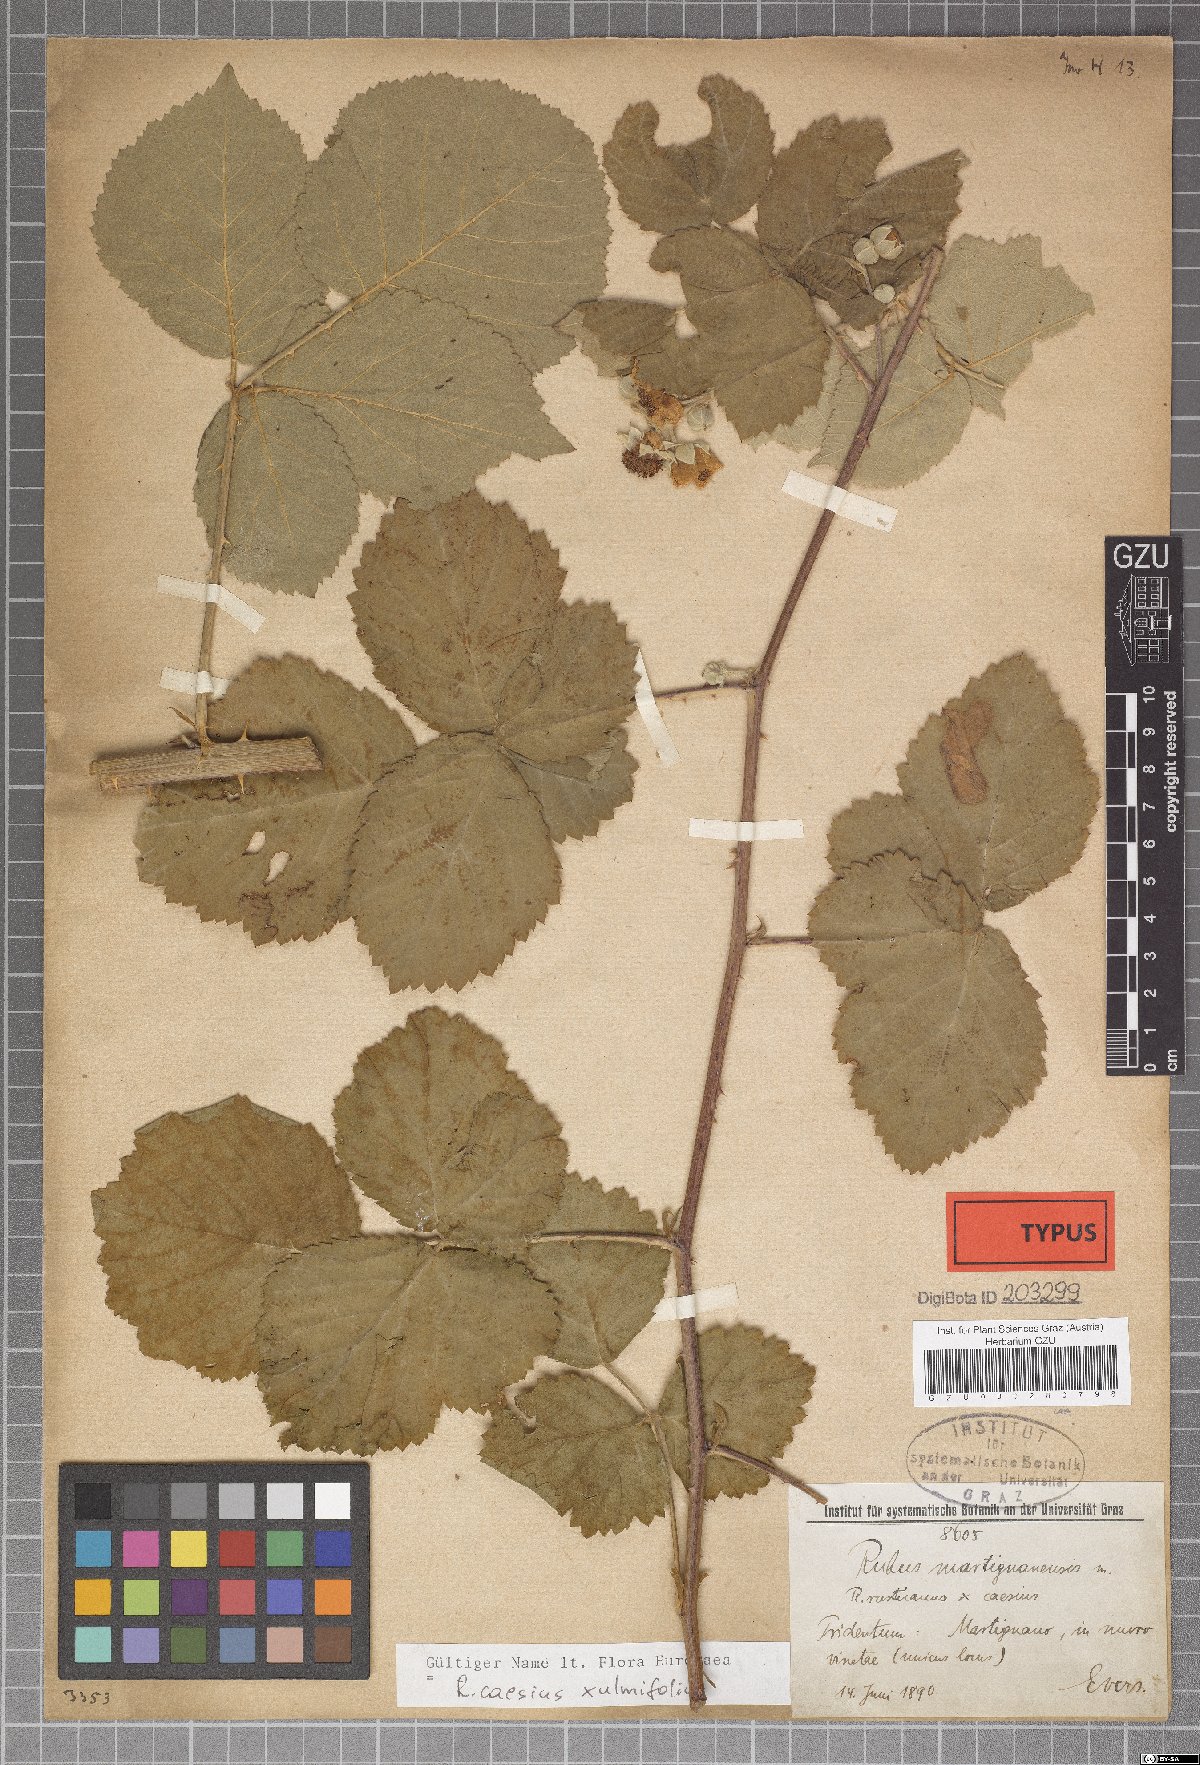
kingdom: Plantae
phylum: Tracheophyta
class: Magnoliopsida
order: Rosales
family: Rosaceae
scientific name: Rosaceae
